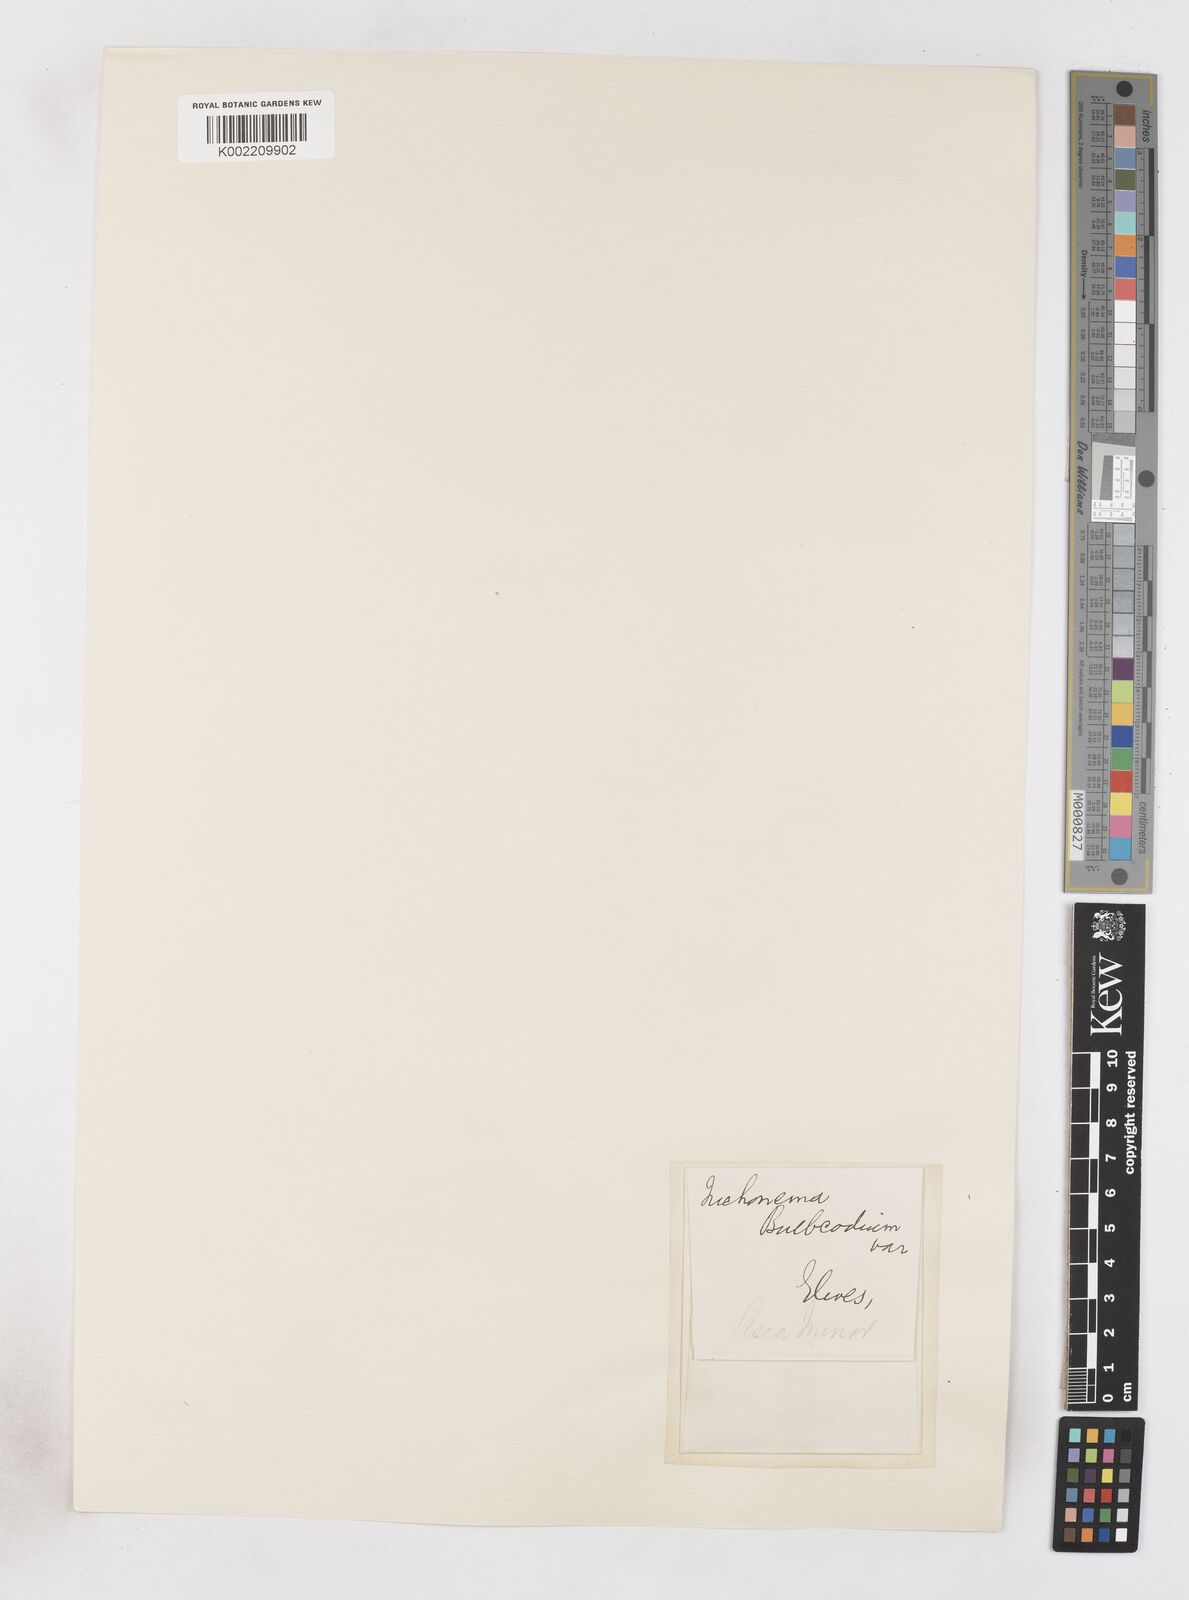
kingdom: Plantae
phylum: Tracheophyta
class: Liliopsida
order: Asparagales
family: Iridaceae
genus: Romulea
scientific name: Romulea bulbocodium
